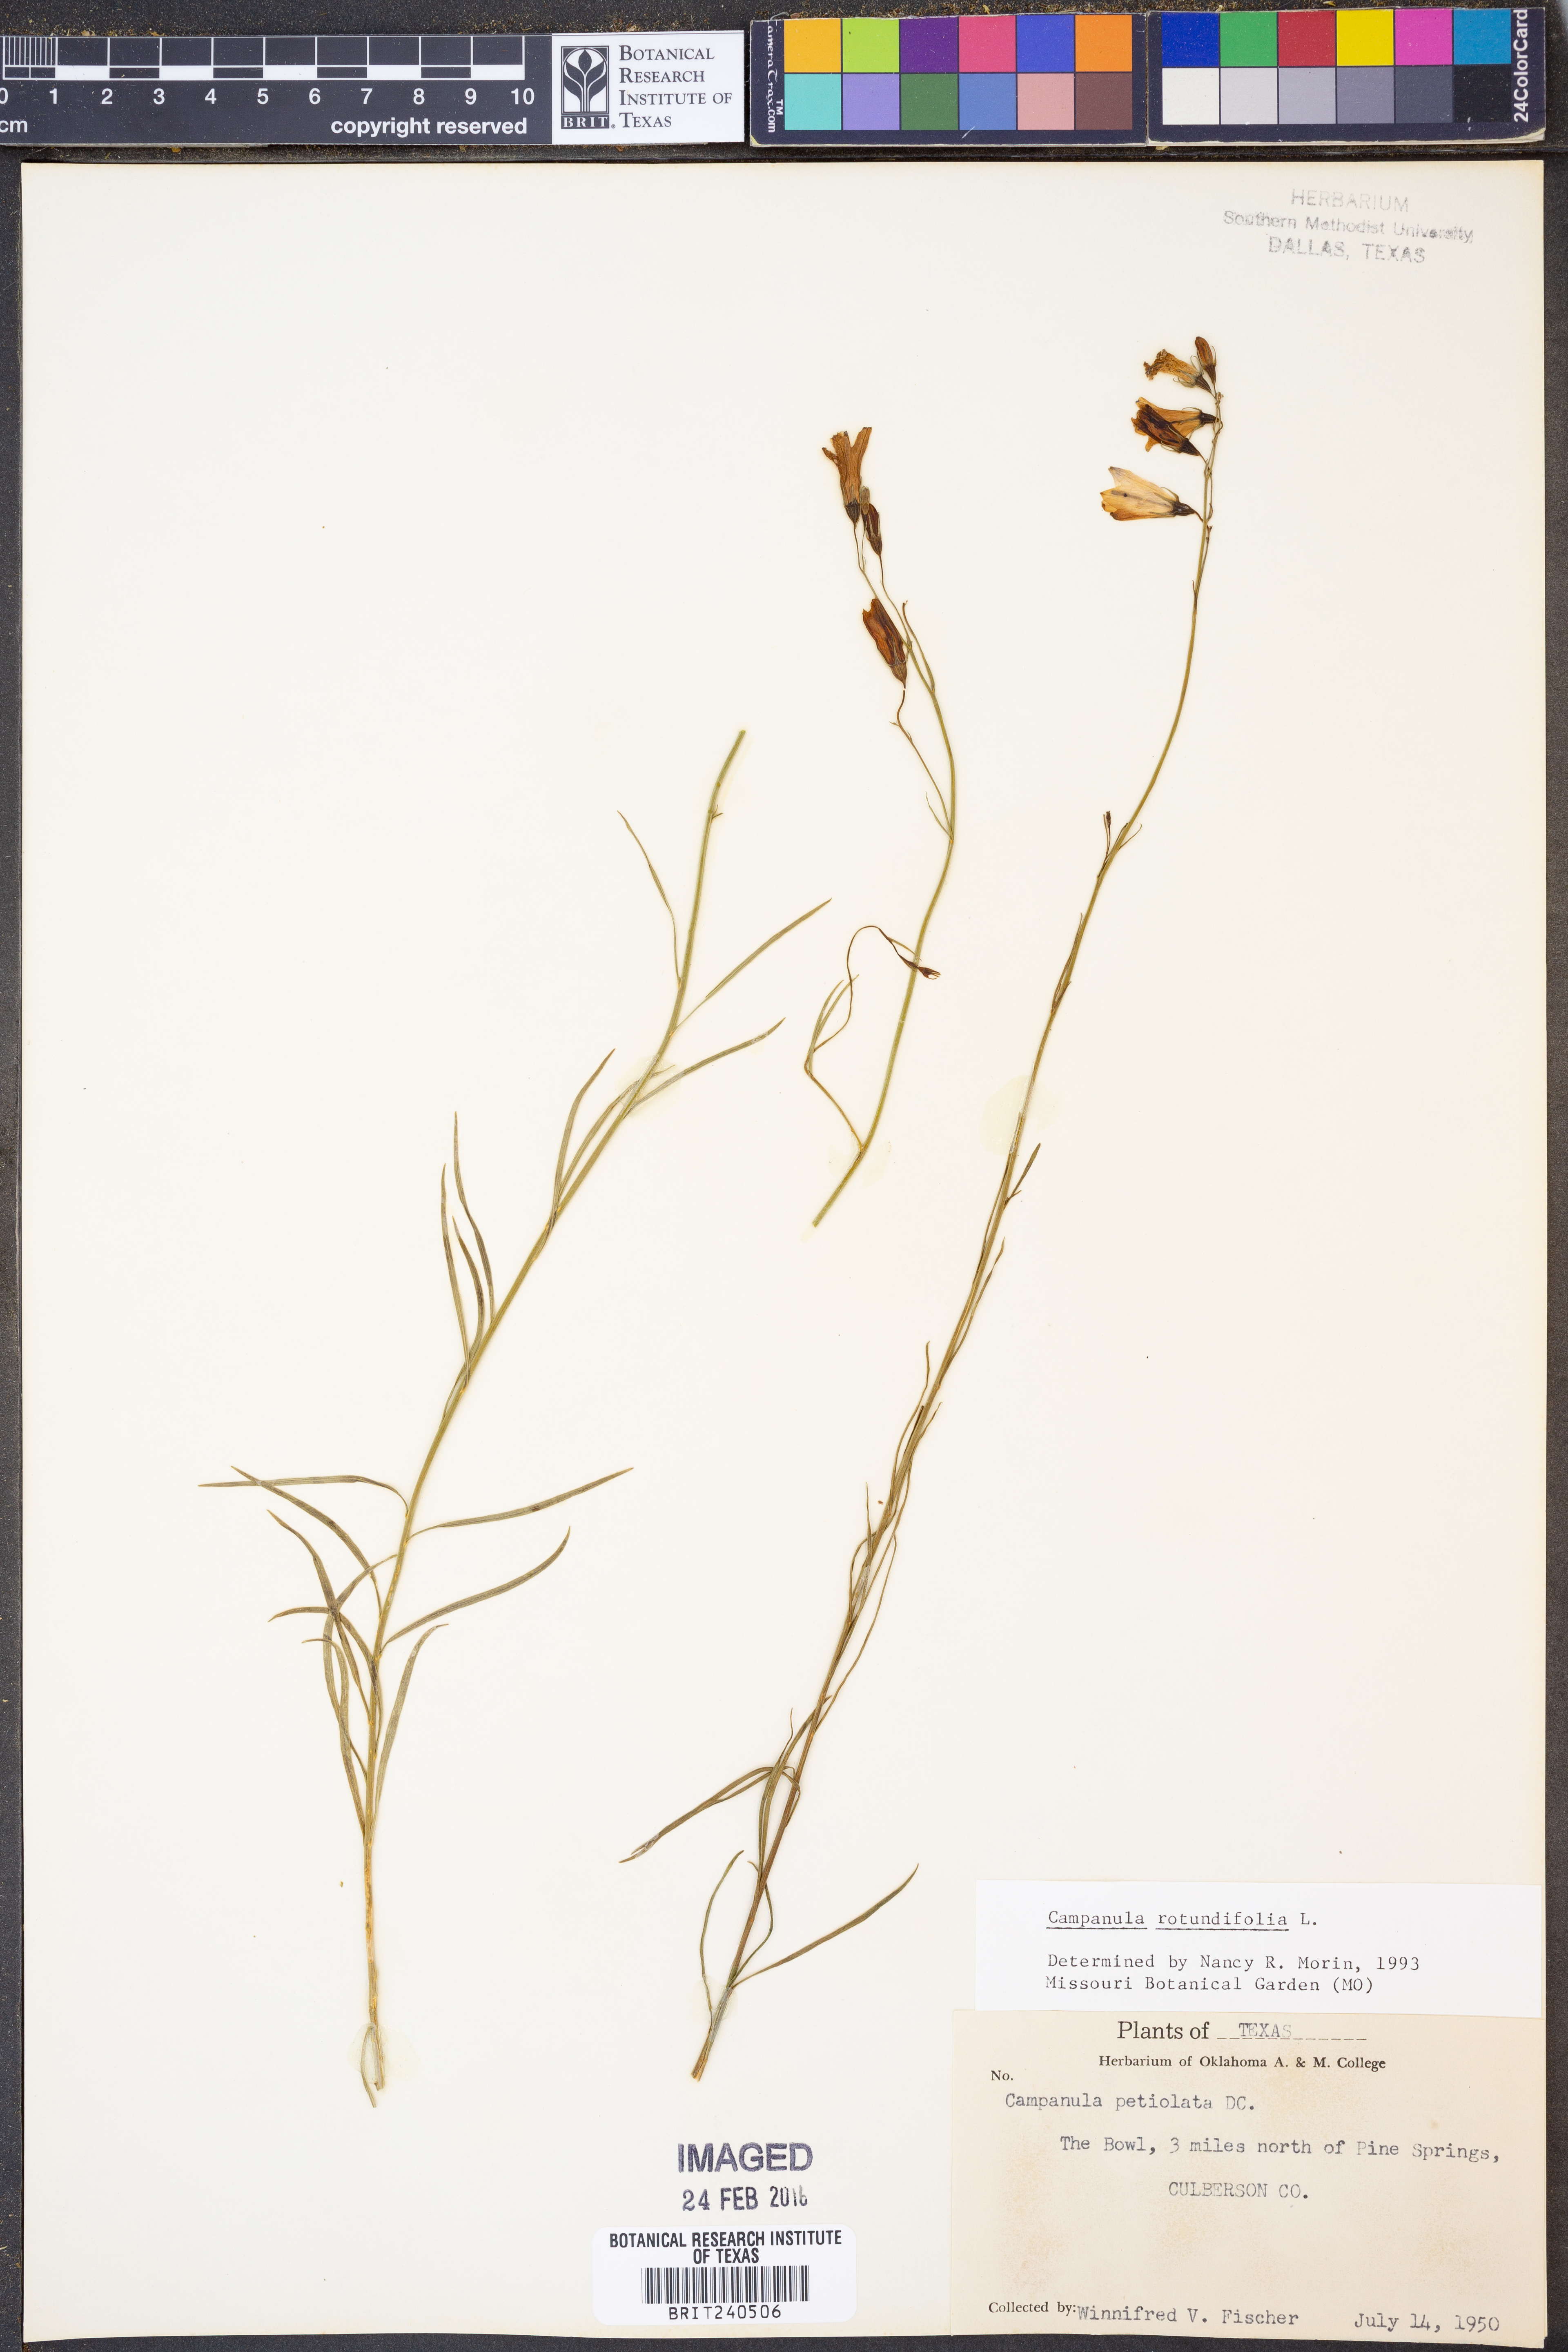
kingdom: Plantae
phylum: Tracheophyta
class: Magnoliopsida
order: Asterales
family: Campanulaceae
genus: Campanula
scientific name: Campanula rotundifolia
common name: Harebell
